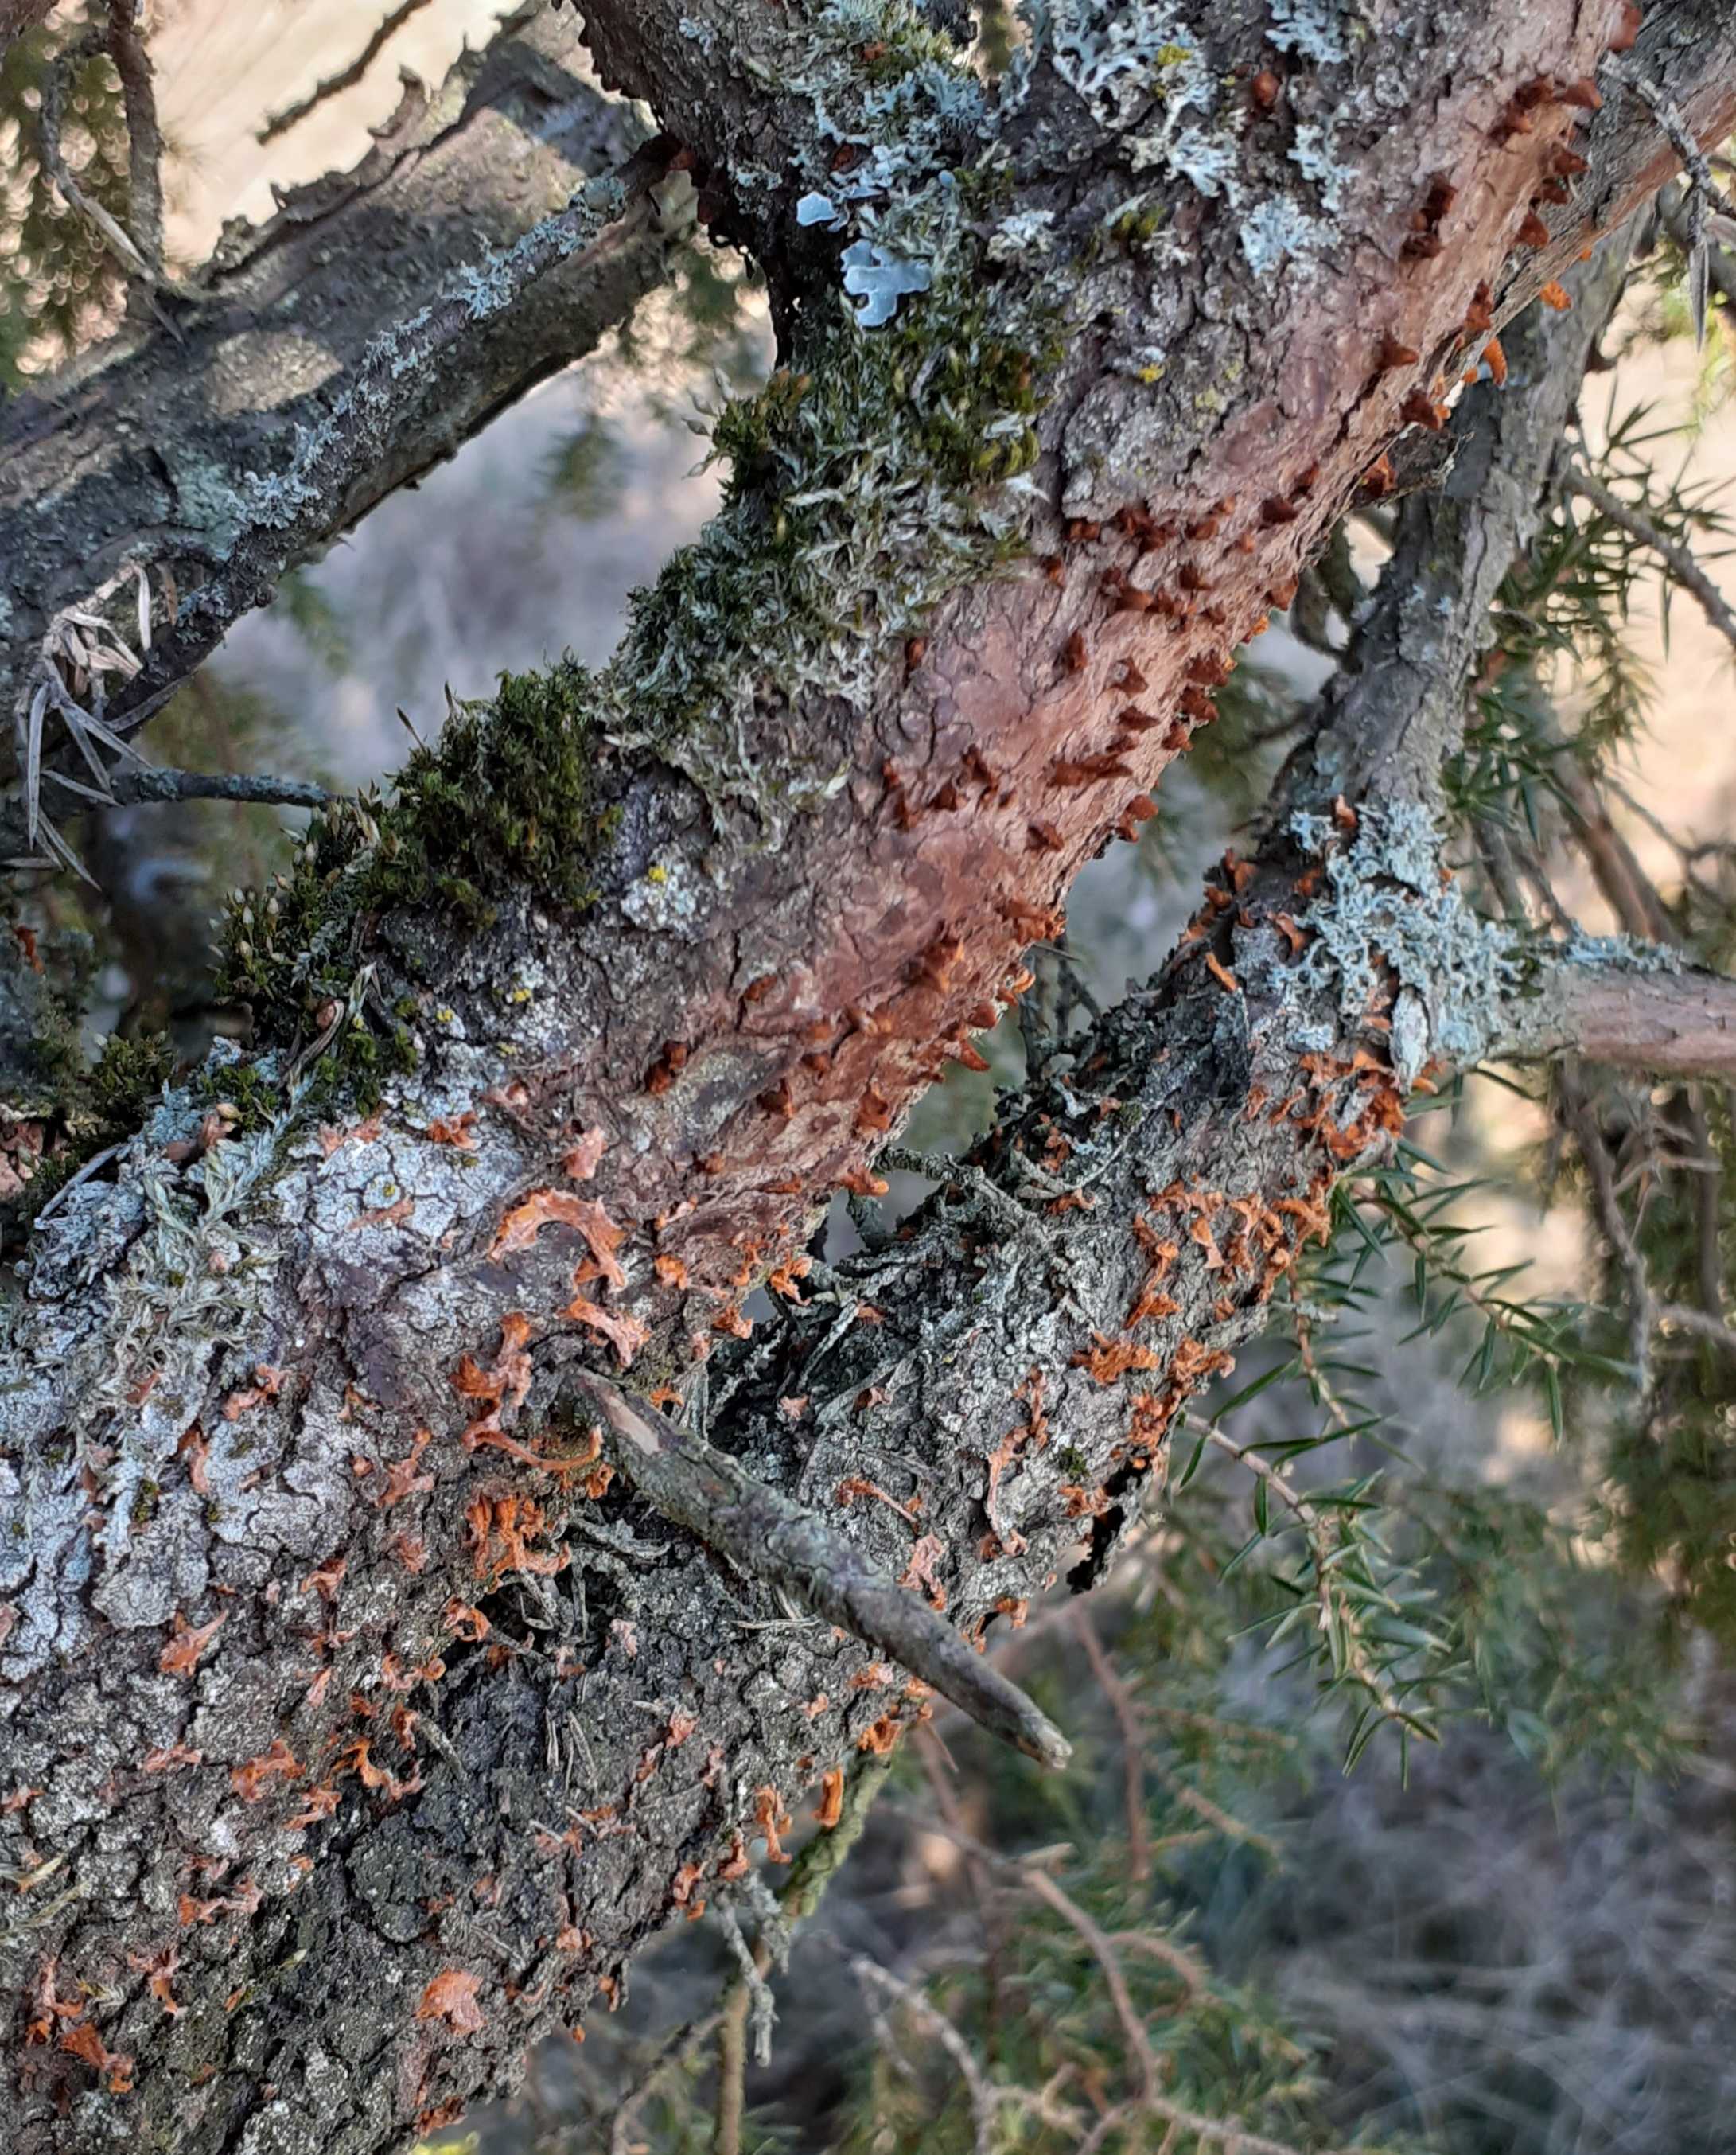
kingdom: Fungi
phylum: Basidiomycota
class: Pucciniomycetes
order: Pucciniales
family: Gymnosporangiaceae
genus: Gymnosporangium
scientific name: Gymnosporangium clavariiforme
